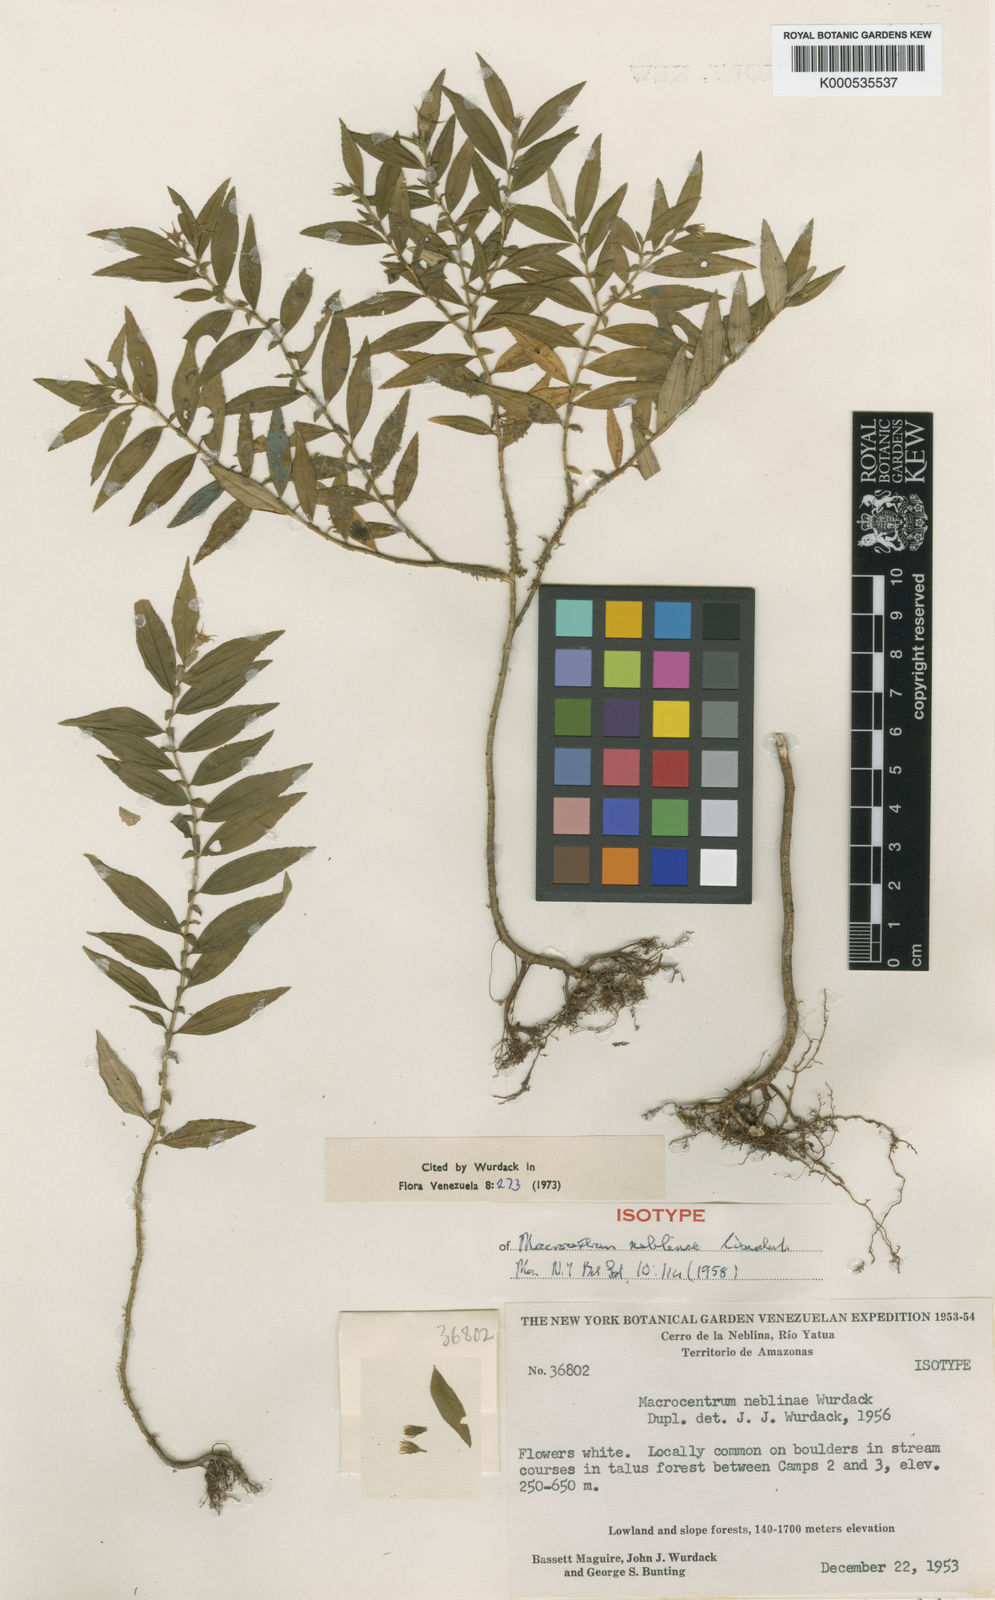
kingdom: Plantae
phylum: Tracheophyta
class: Magnoliopsida
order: Myrtales
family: Melastomataceae
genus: Macrocentrum
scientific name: Macrocentrum neblinae
